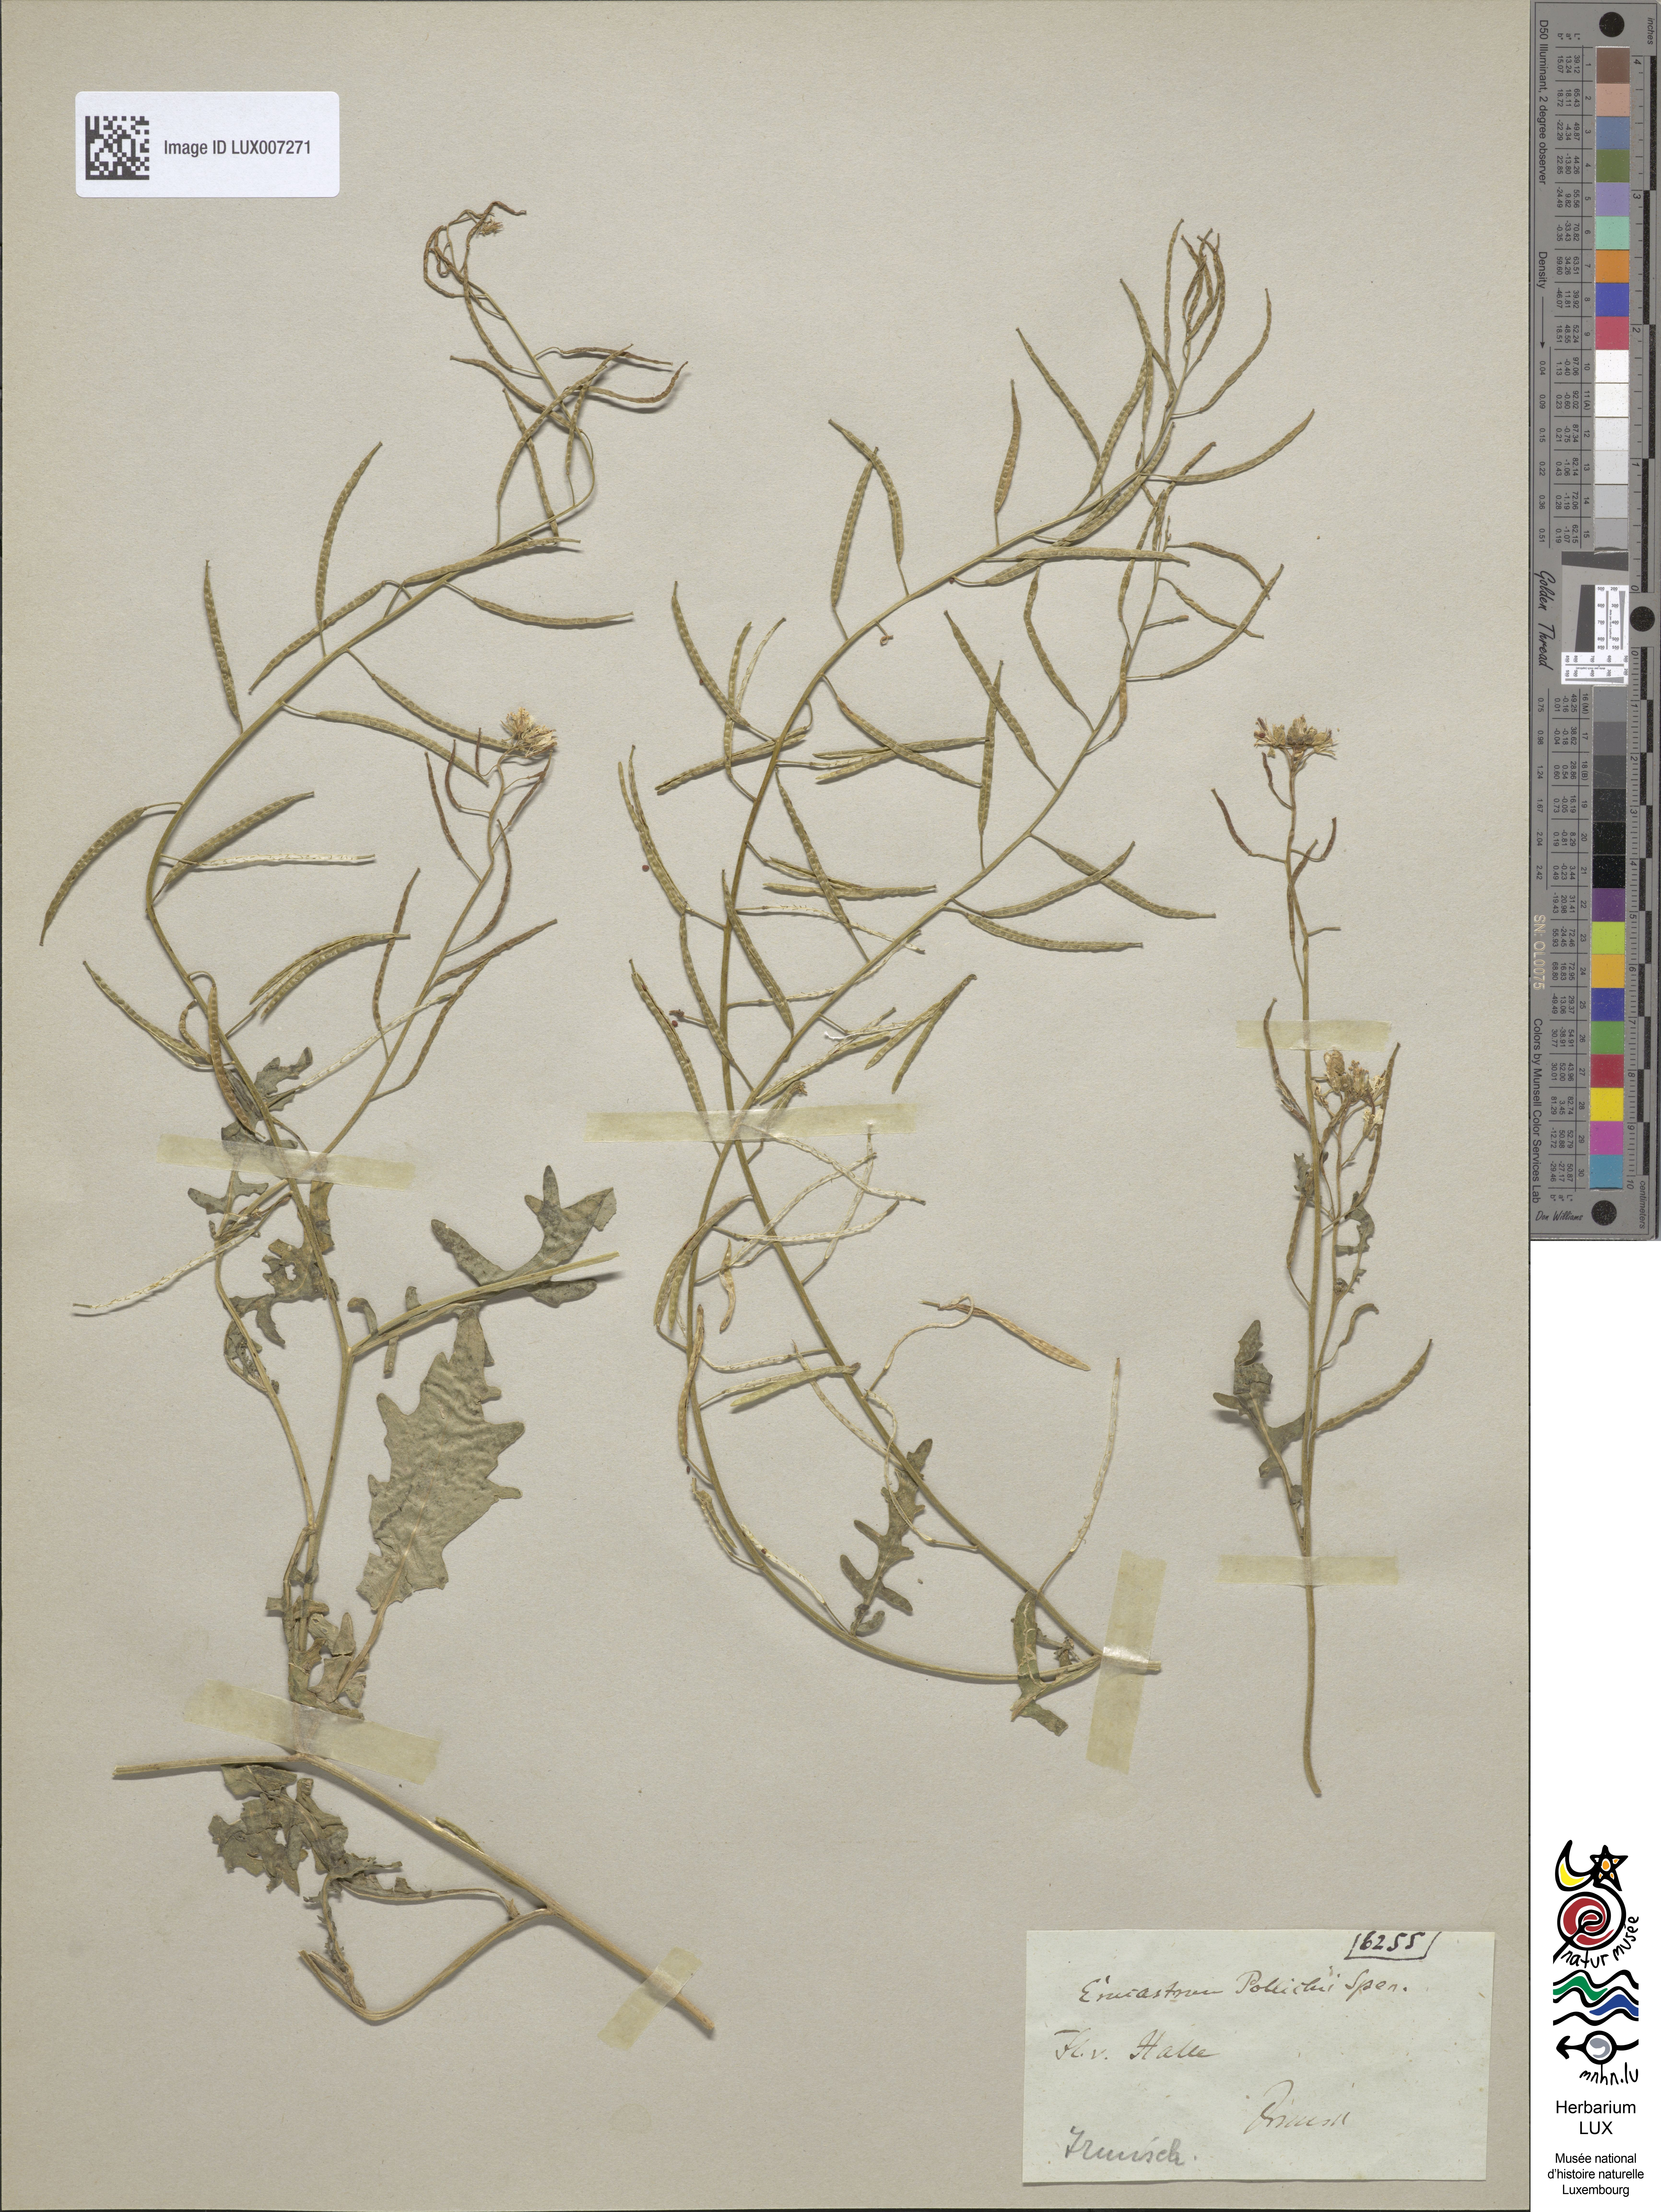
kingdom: Plantae
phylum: Tracheophyta
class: Magnoliopsida
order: Brassicales
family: Brassicaceae
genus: Erucastrum
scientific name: Erucastrum gallicum
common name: Hairy rocket
